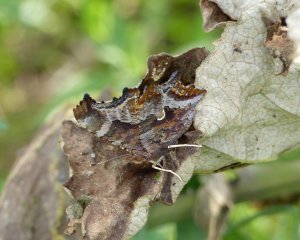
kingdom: Animalia
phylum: Arthropoda
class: Insecta
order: Lepidoptera
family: Nymphalidae
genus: Polygonia
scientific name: Polygonia comma
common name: Eastern Comma
